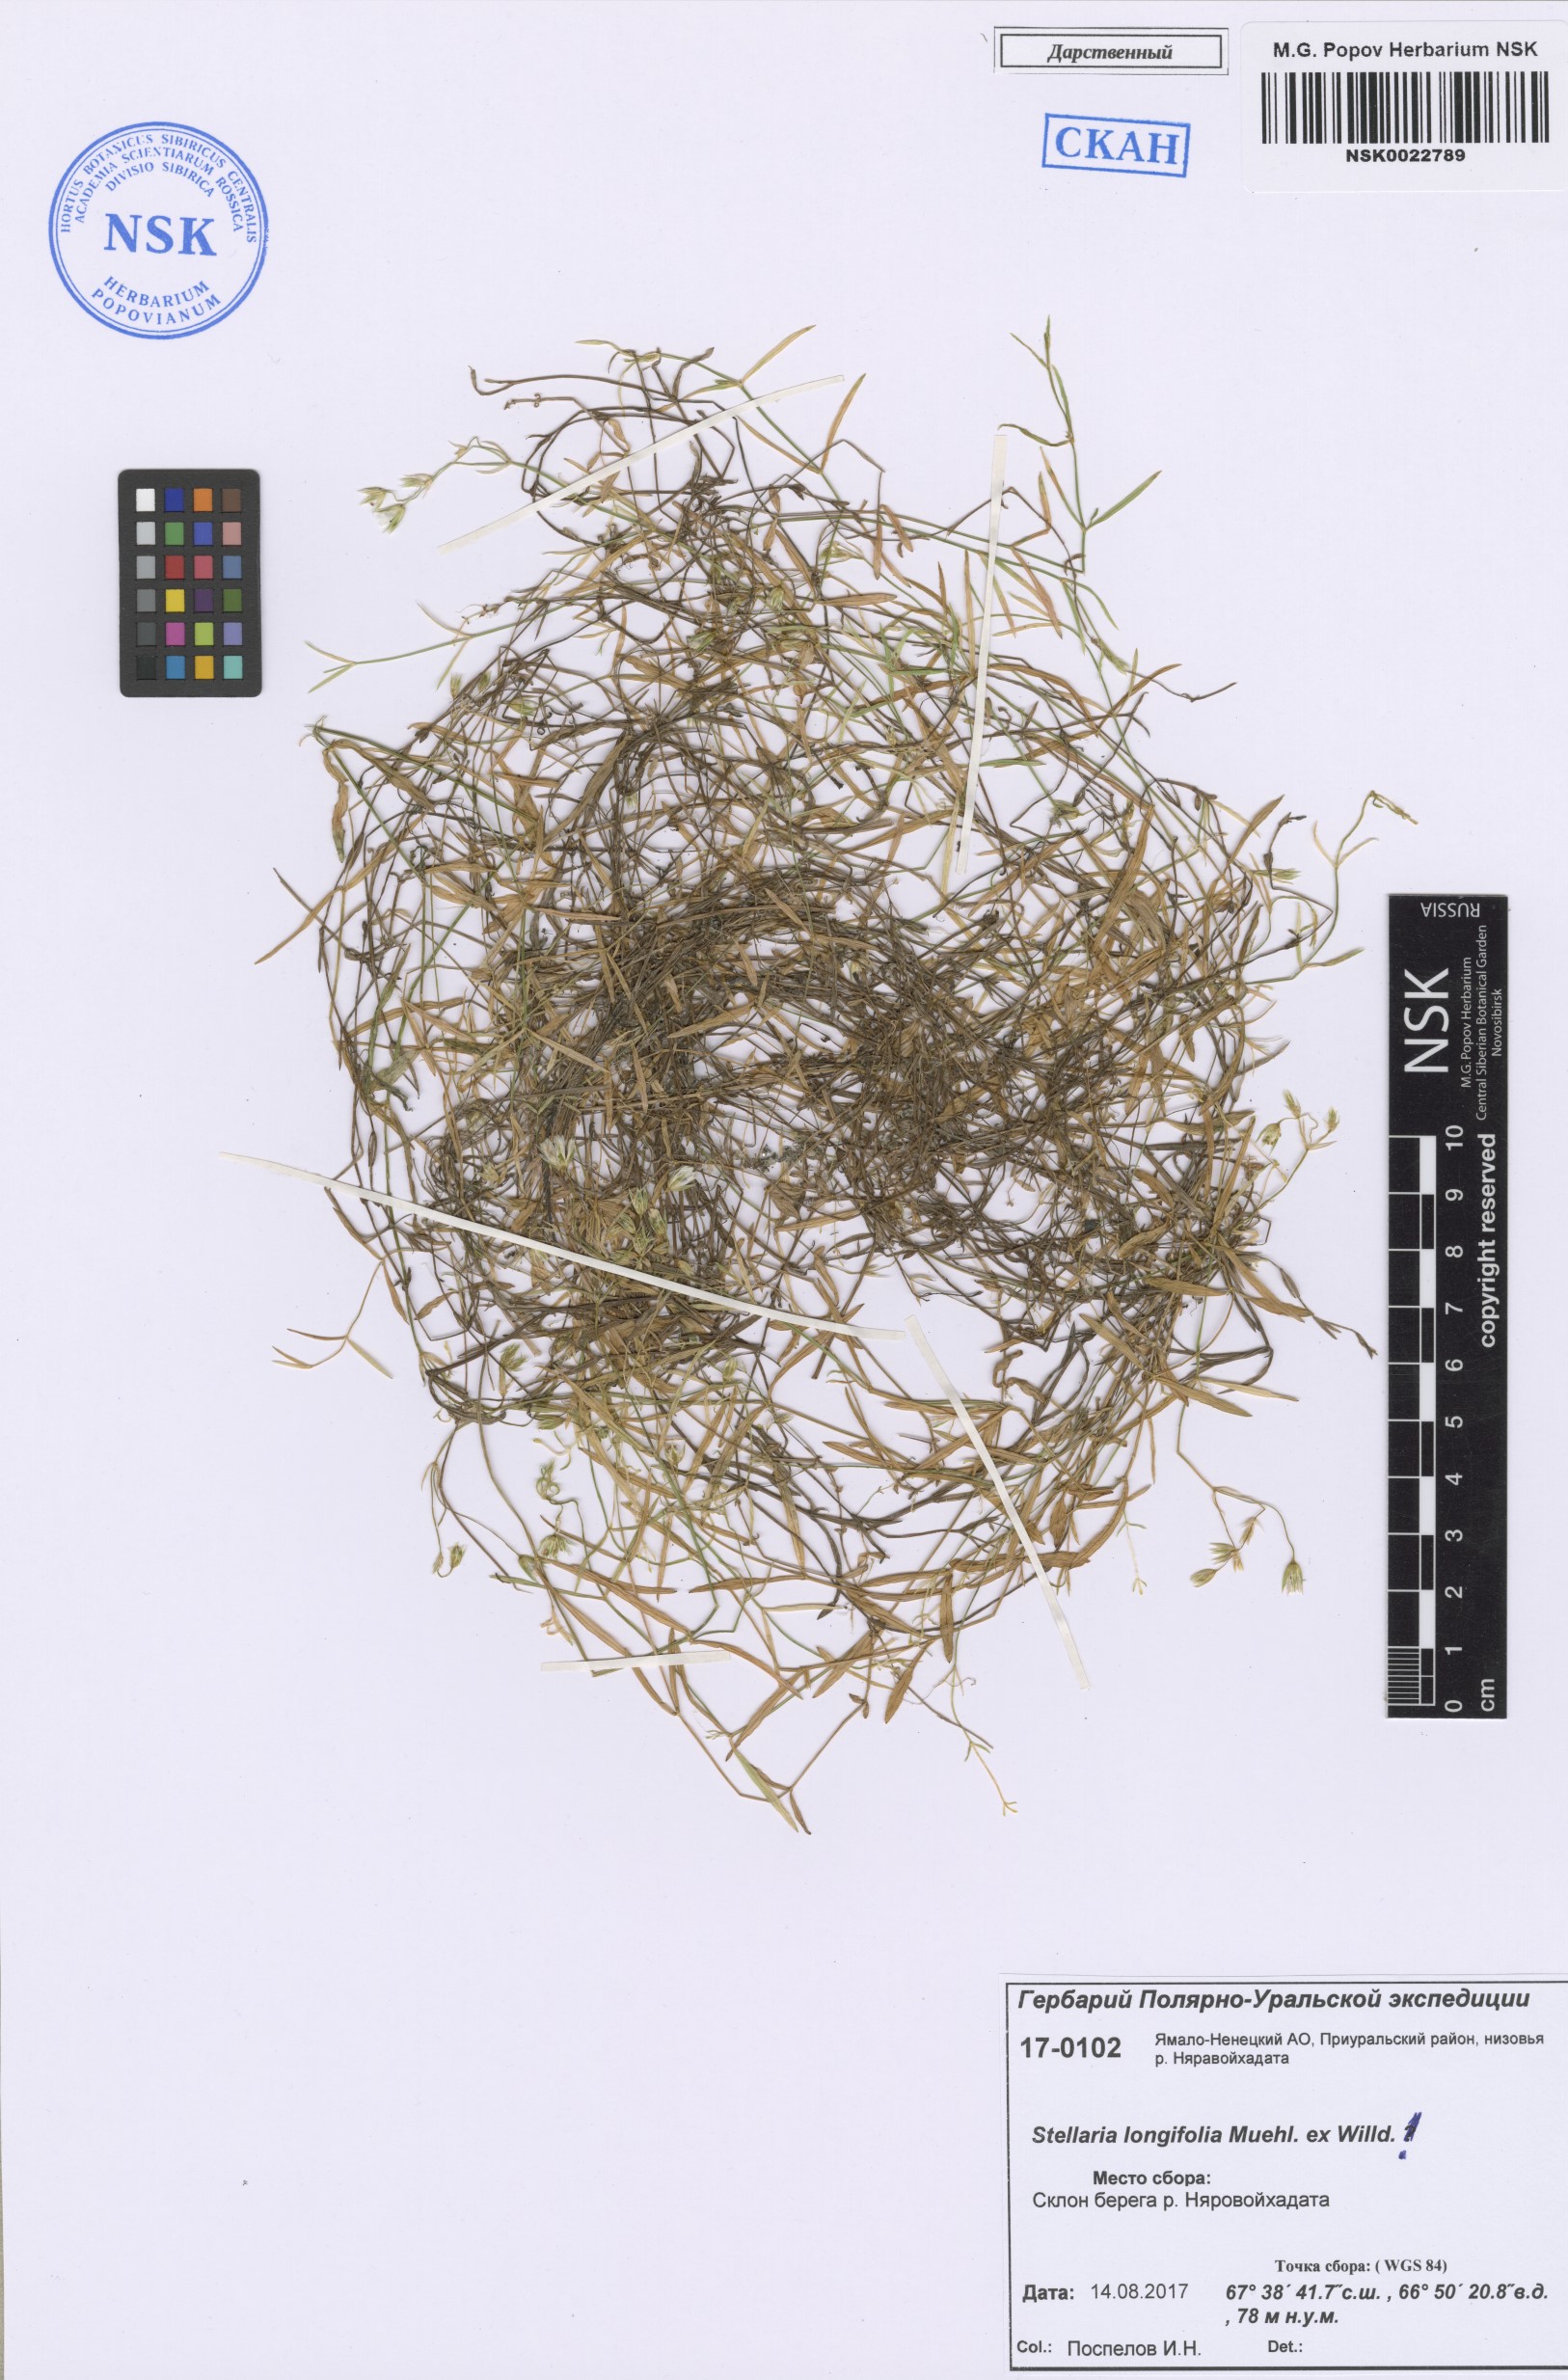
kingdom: Plantae
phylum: Tracheophyta
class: Magnoliopsida
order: Caryophyllales
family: Caryophyllaceae
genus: Stellaria
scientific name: Stellaria longifolia
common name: Long-leaved chickweed
